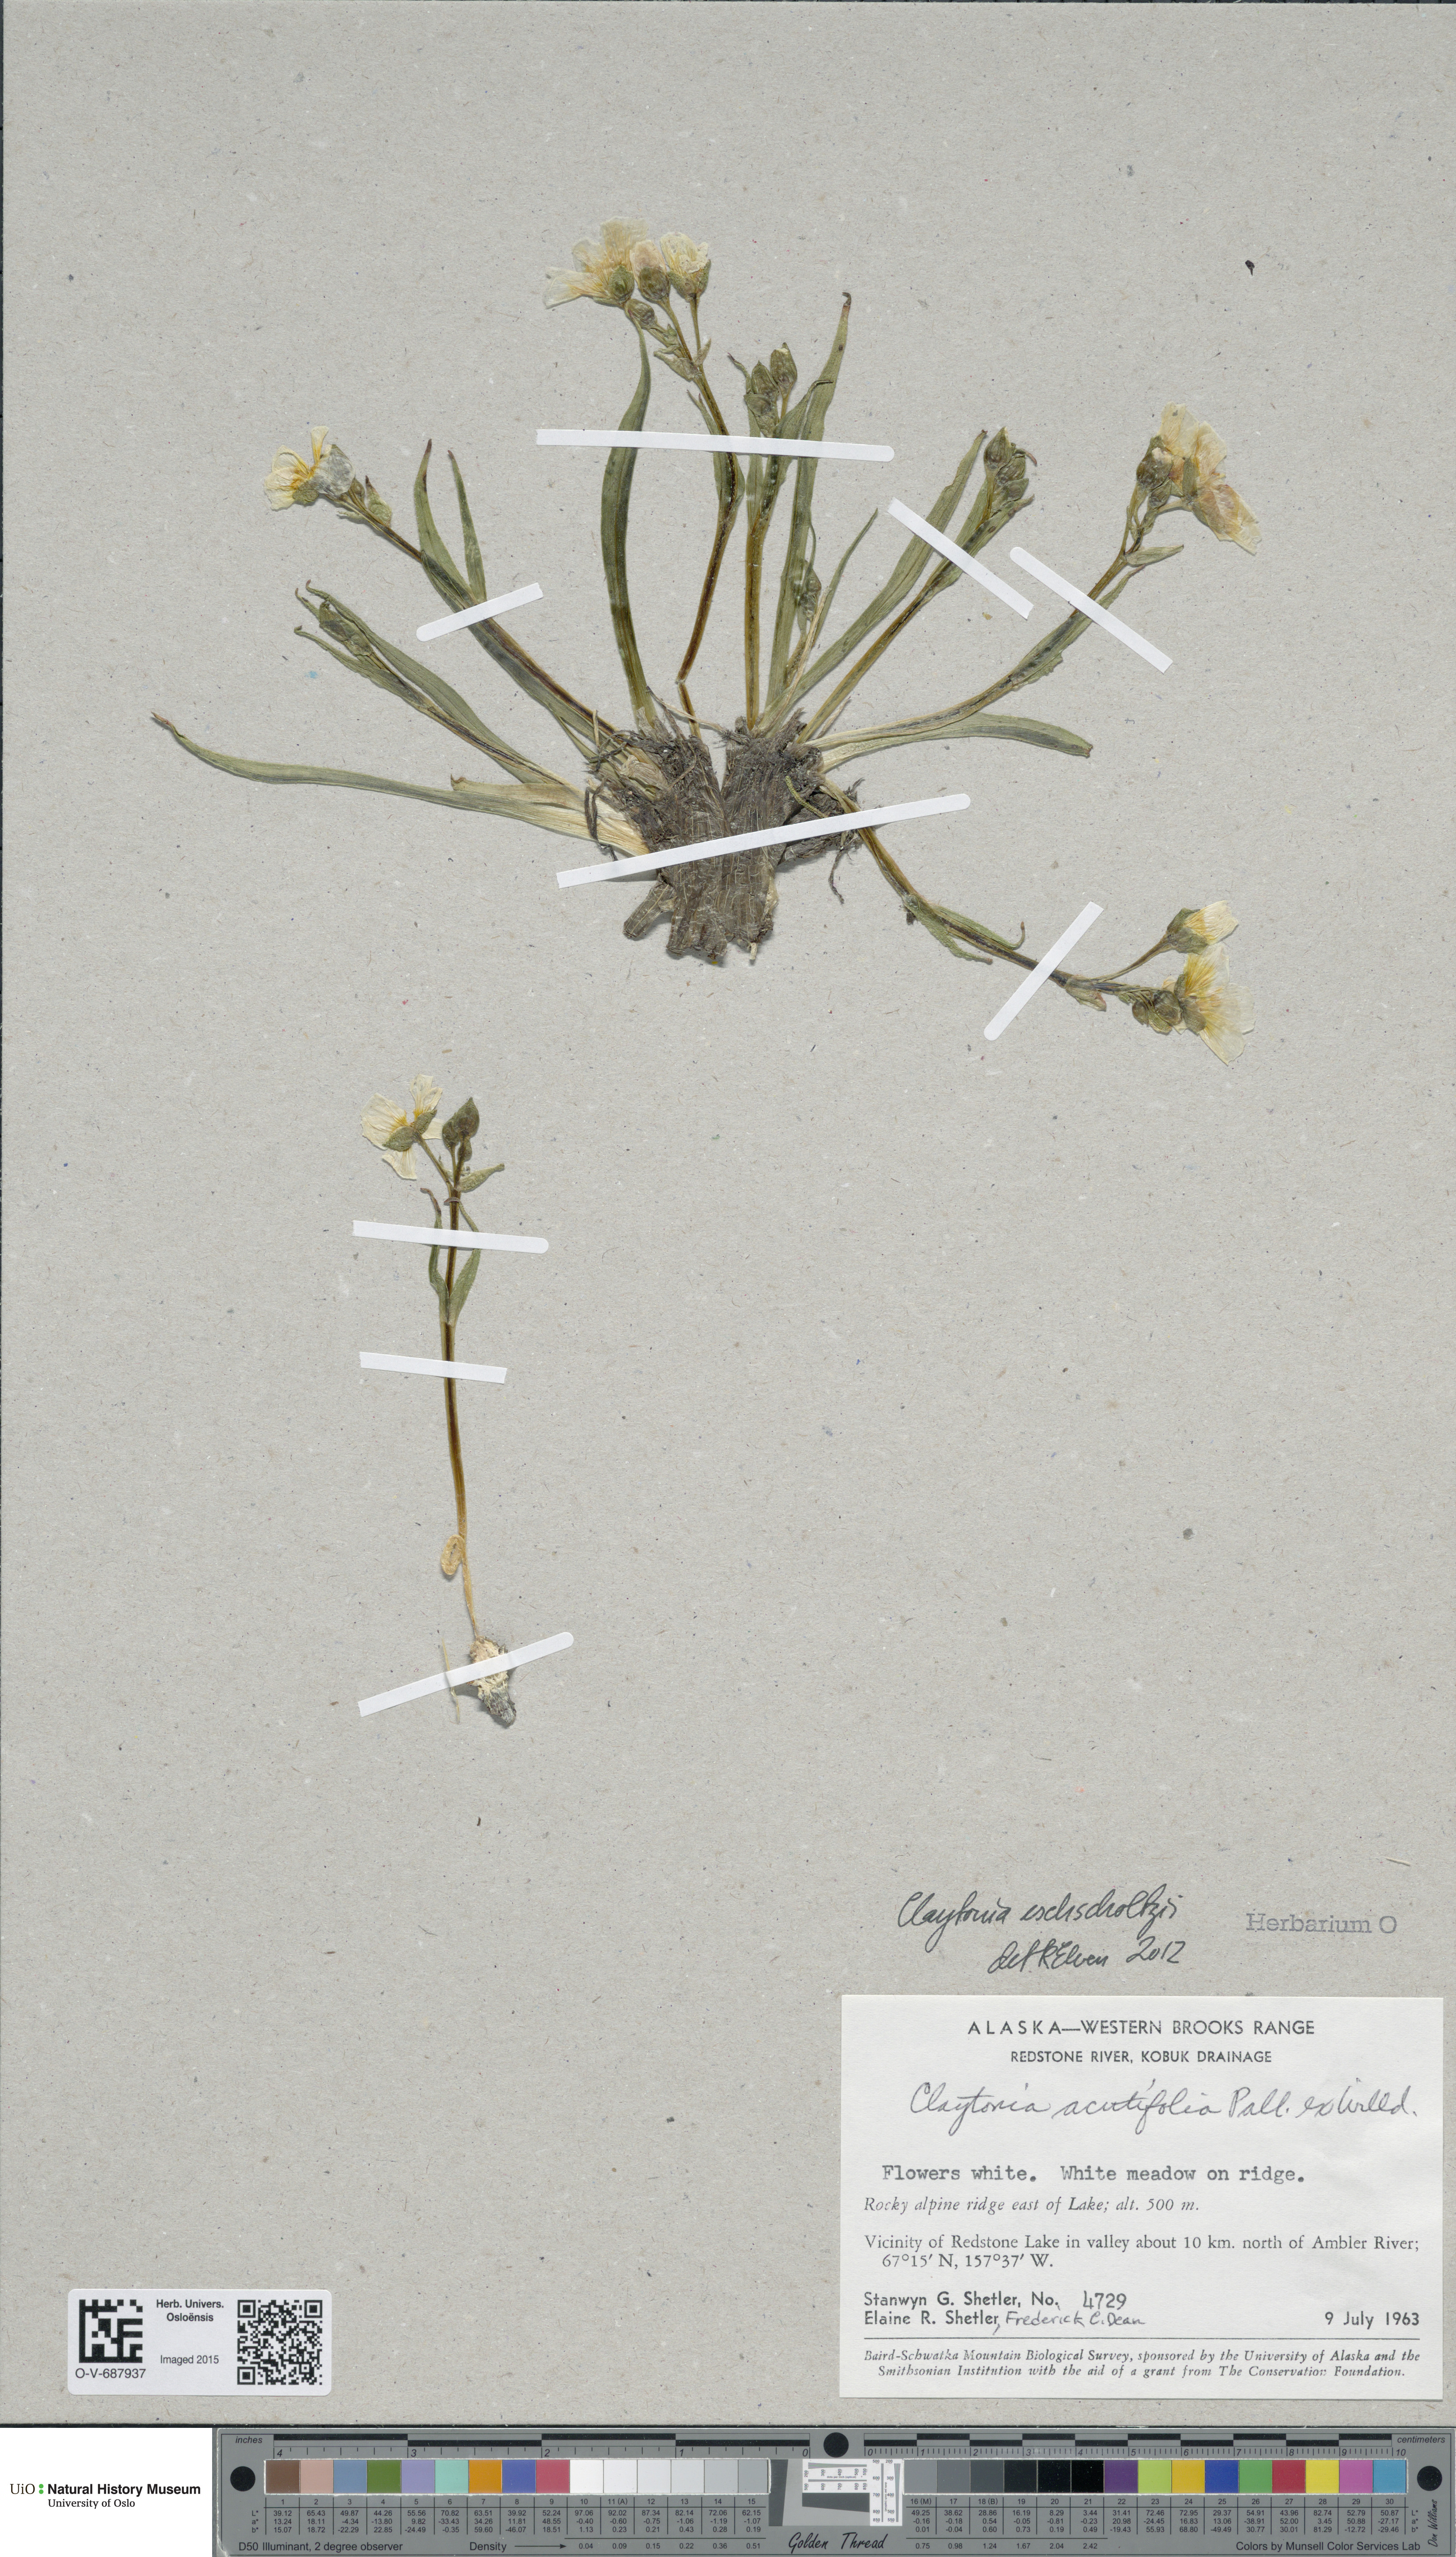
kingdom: Plantae
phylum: Tracheophyta
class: Magnoliopsida
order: Caryophyllales
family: Montiaceae
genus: Claytonia
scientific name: Claytonia acutifolia
